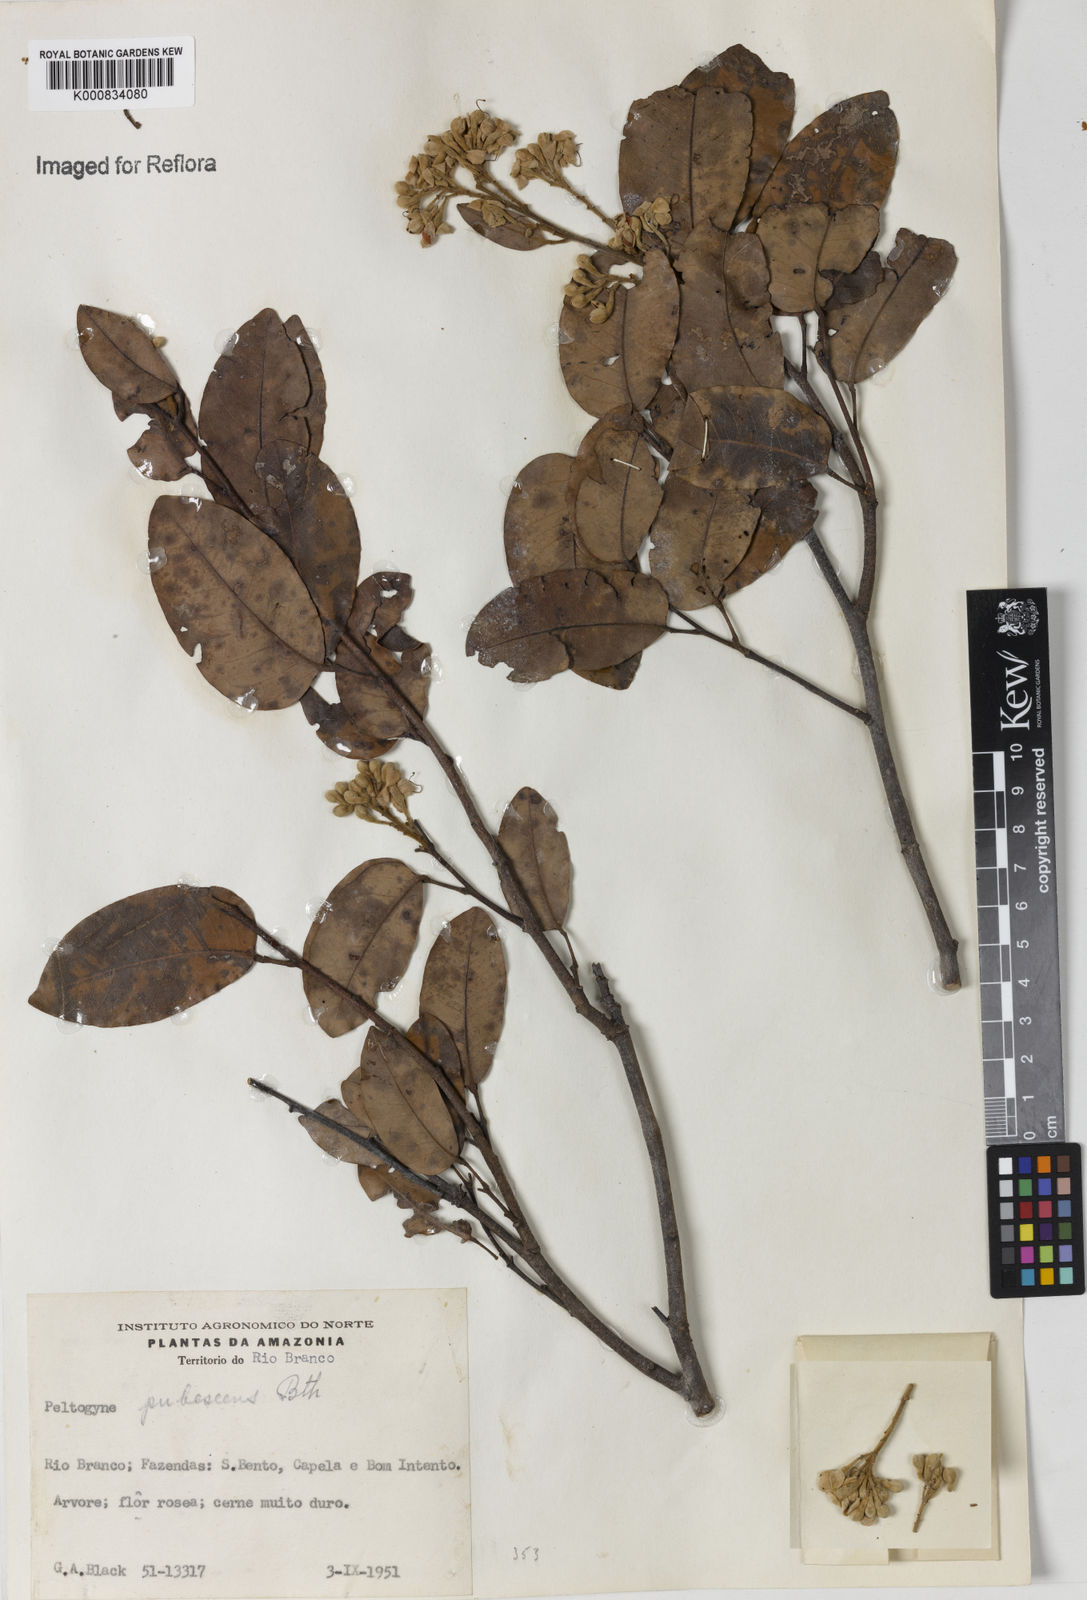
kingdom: Plantae
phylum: Tracheophyta
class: Magnoliopsida
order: Fabales
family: Fabaceae
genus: Peltogyne
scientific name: Peltogyne paniculata
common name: Purpleheart
